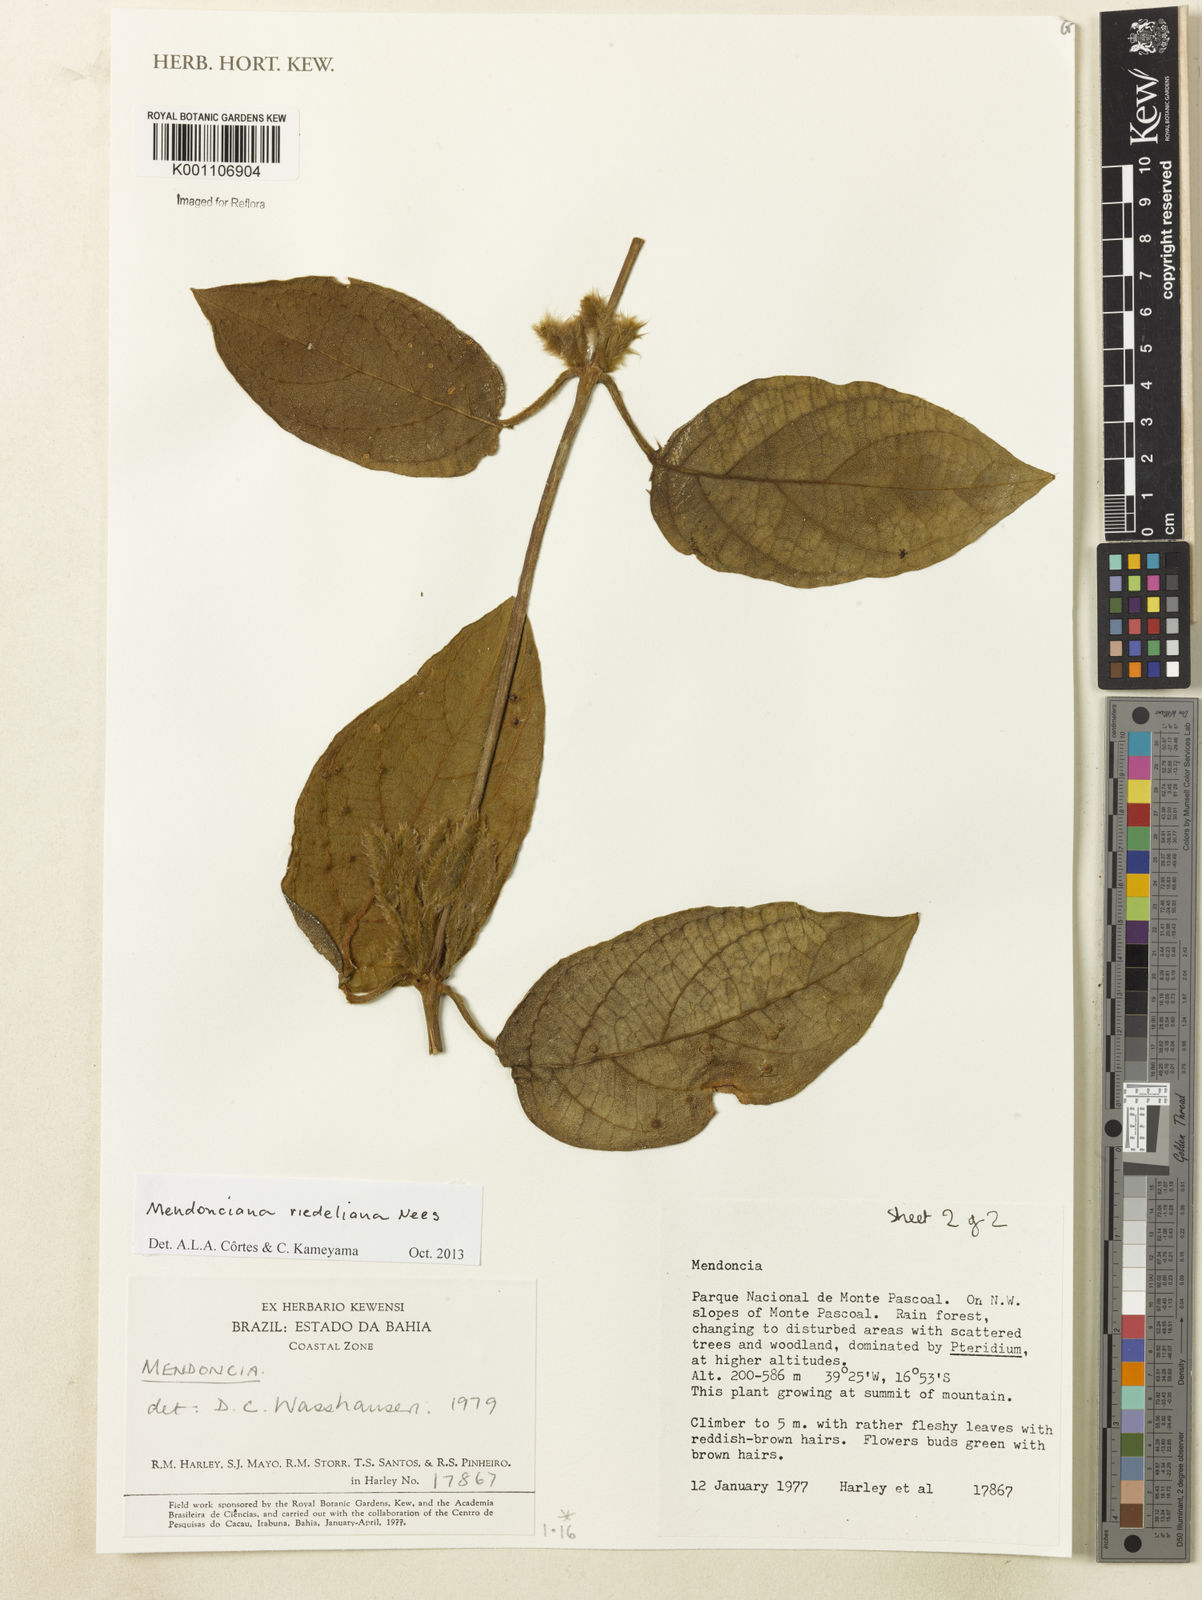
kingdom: Plantae
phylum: Tracheophyta
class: Magnoliopsida
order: Lamiales
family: Acanthaceae
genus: Mendoncia
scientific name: Mendoncia
